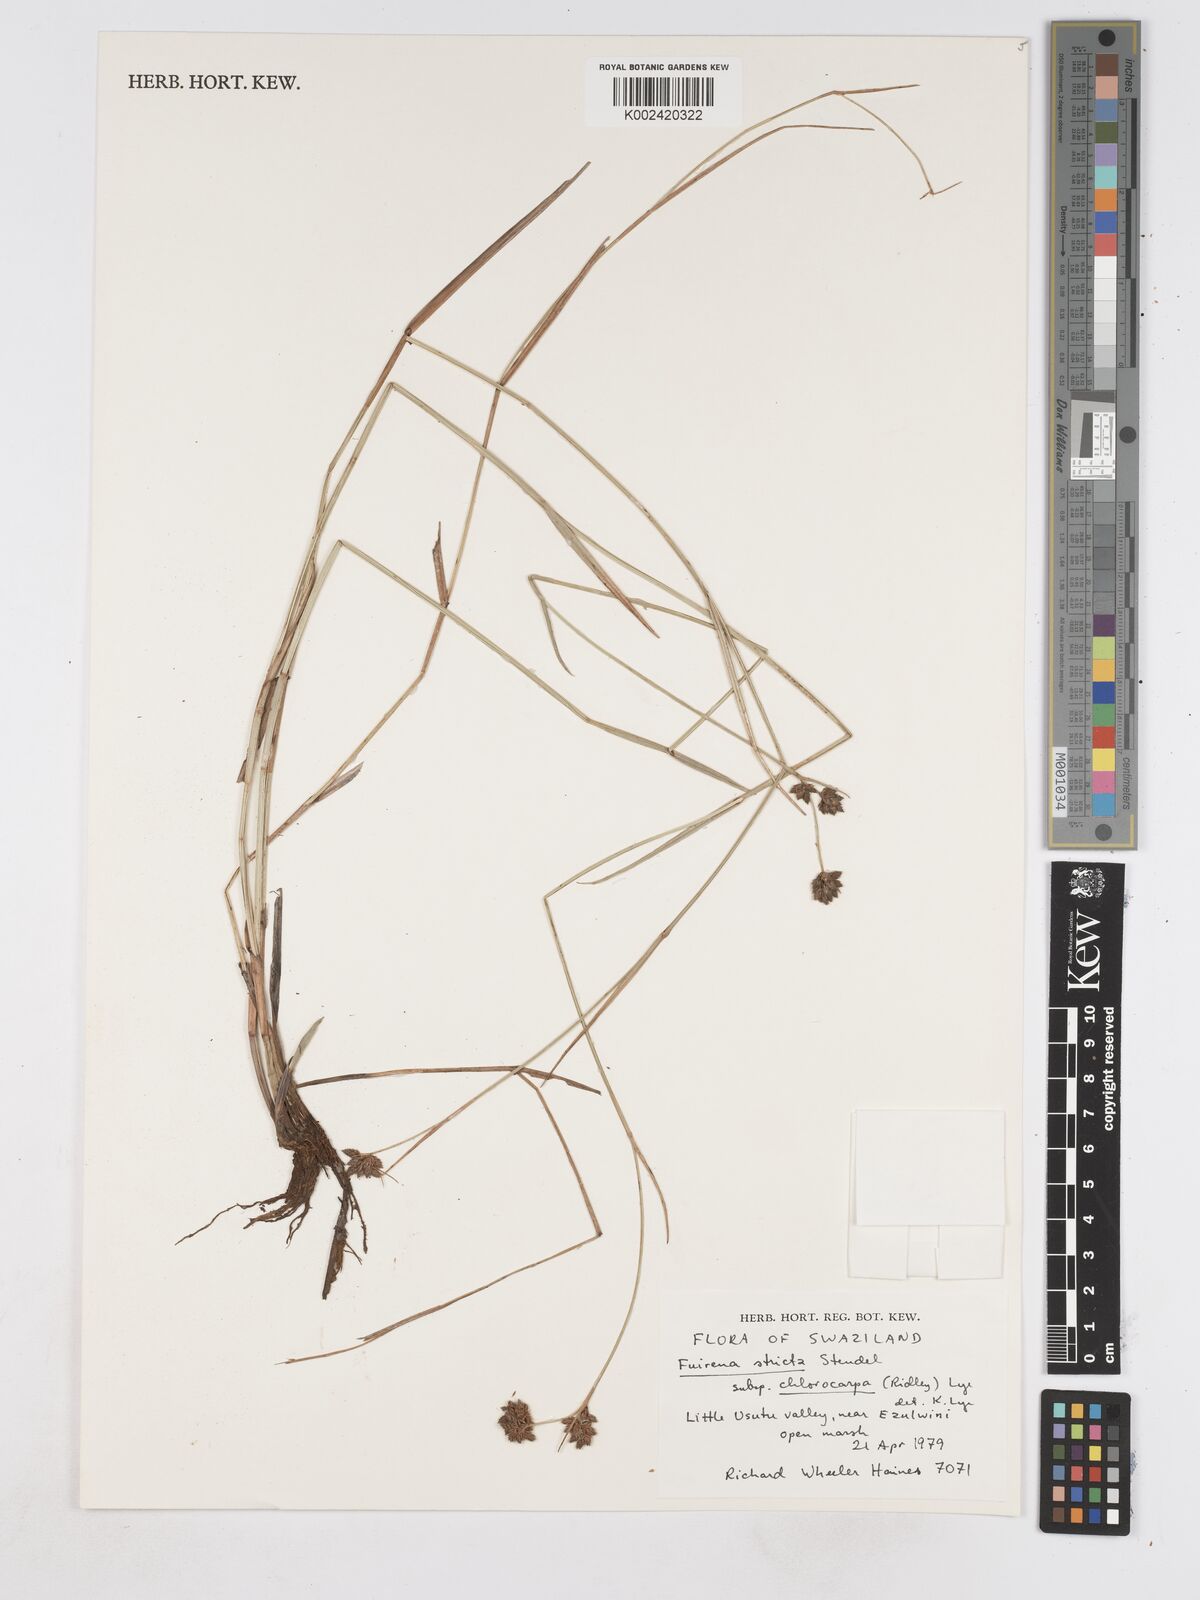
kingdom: Plantae
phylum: Tracheophyta
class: Liliopsida
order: Poales
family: Cyperaceae
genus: Fuirena
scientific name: Fuirena stricta
